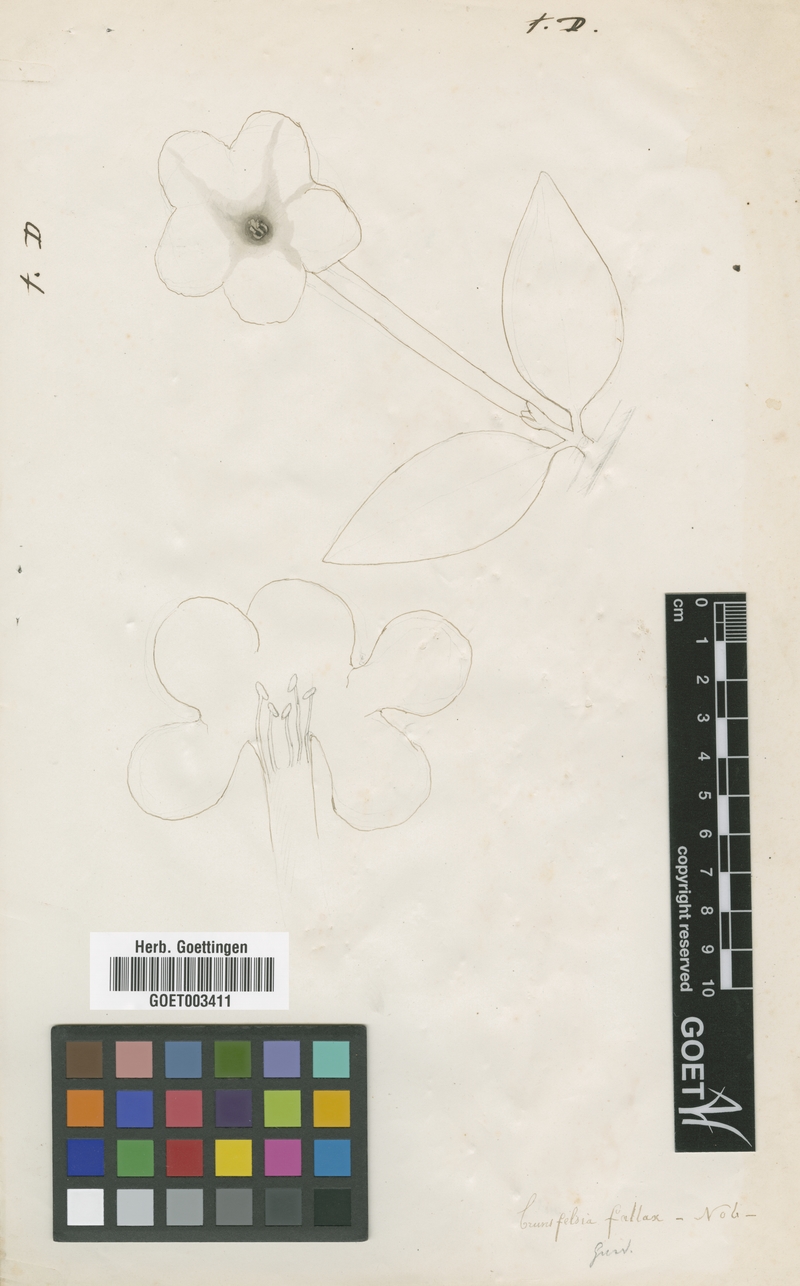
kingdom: Plantae
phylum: Tracheophyta
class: Magnoliopsida
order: Solanales
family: Solanaceae
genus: Brunfelsia
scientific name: Brunfelsia americana
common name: Lady-of-the-night
